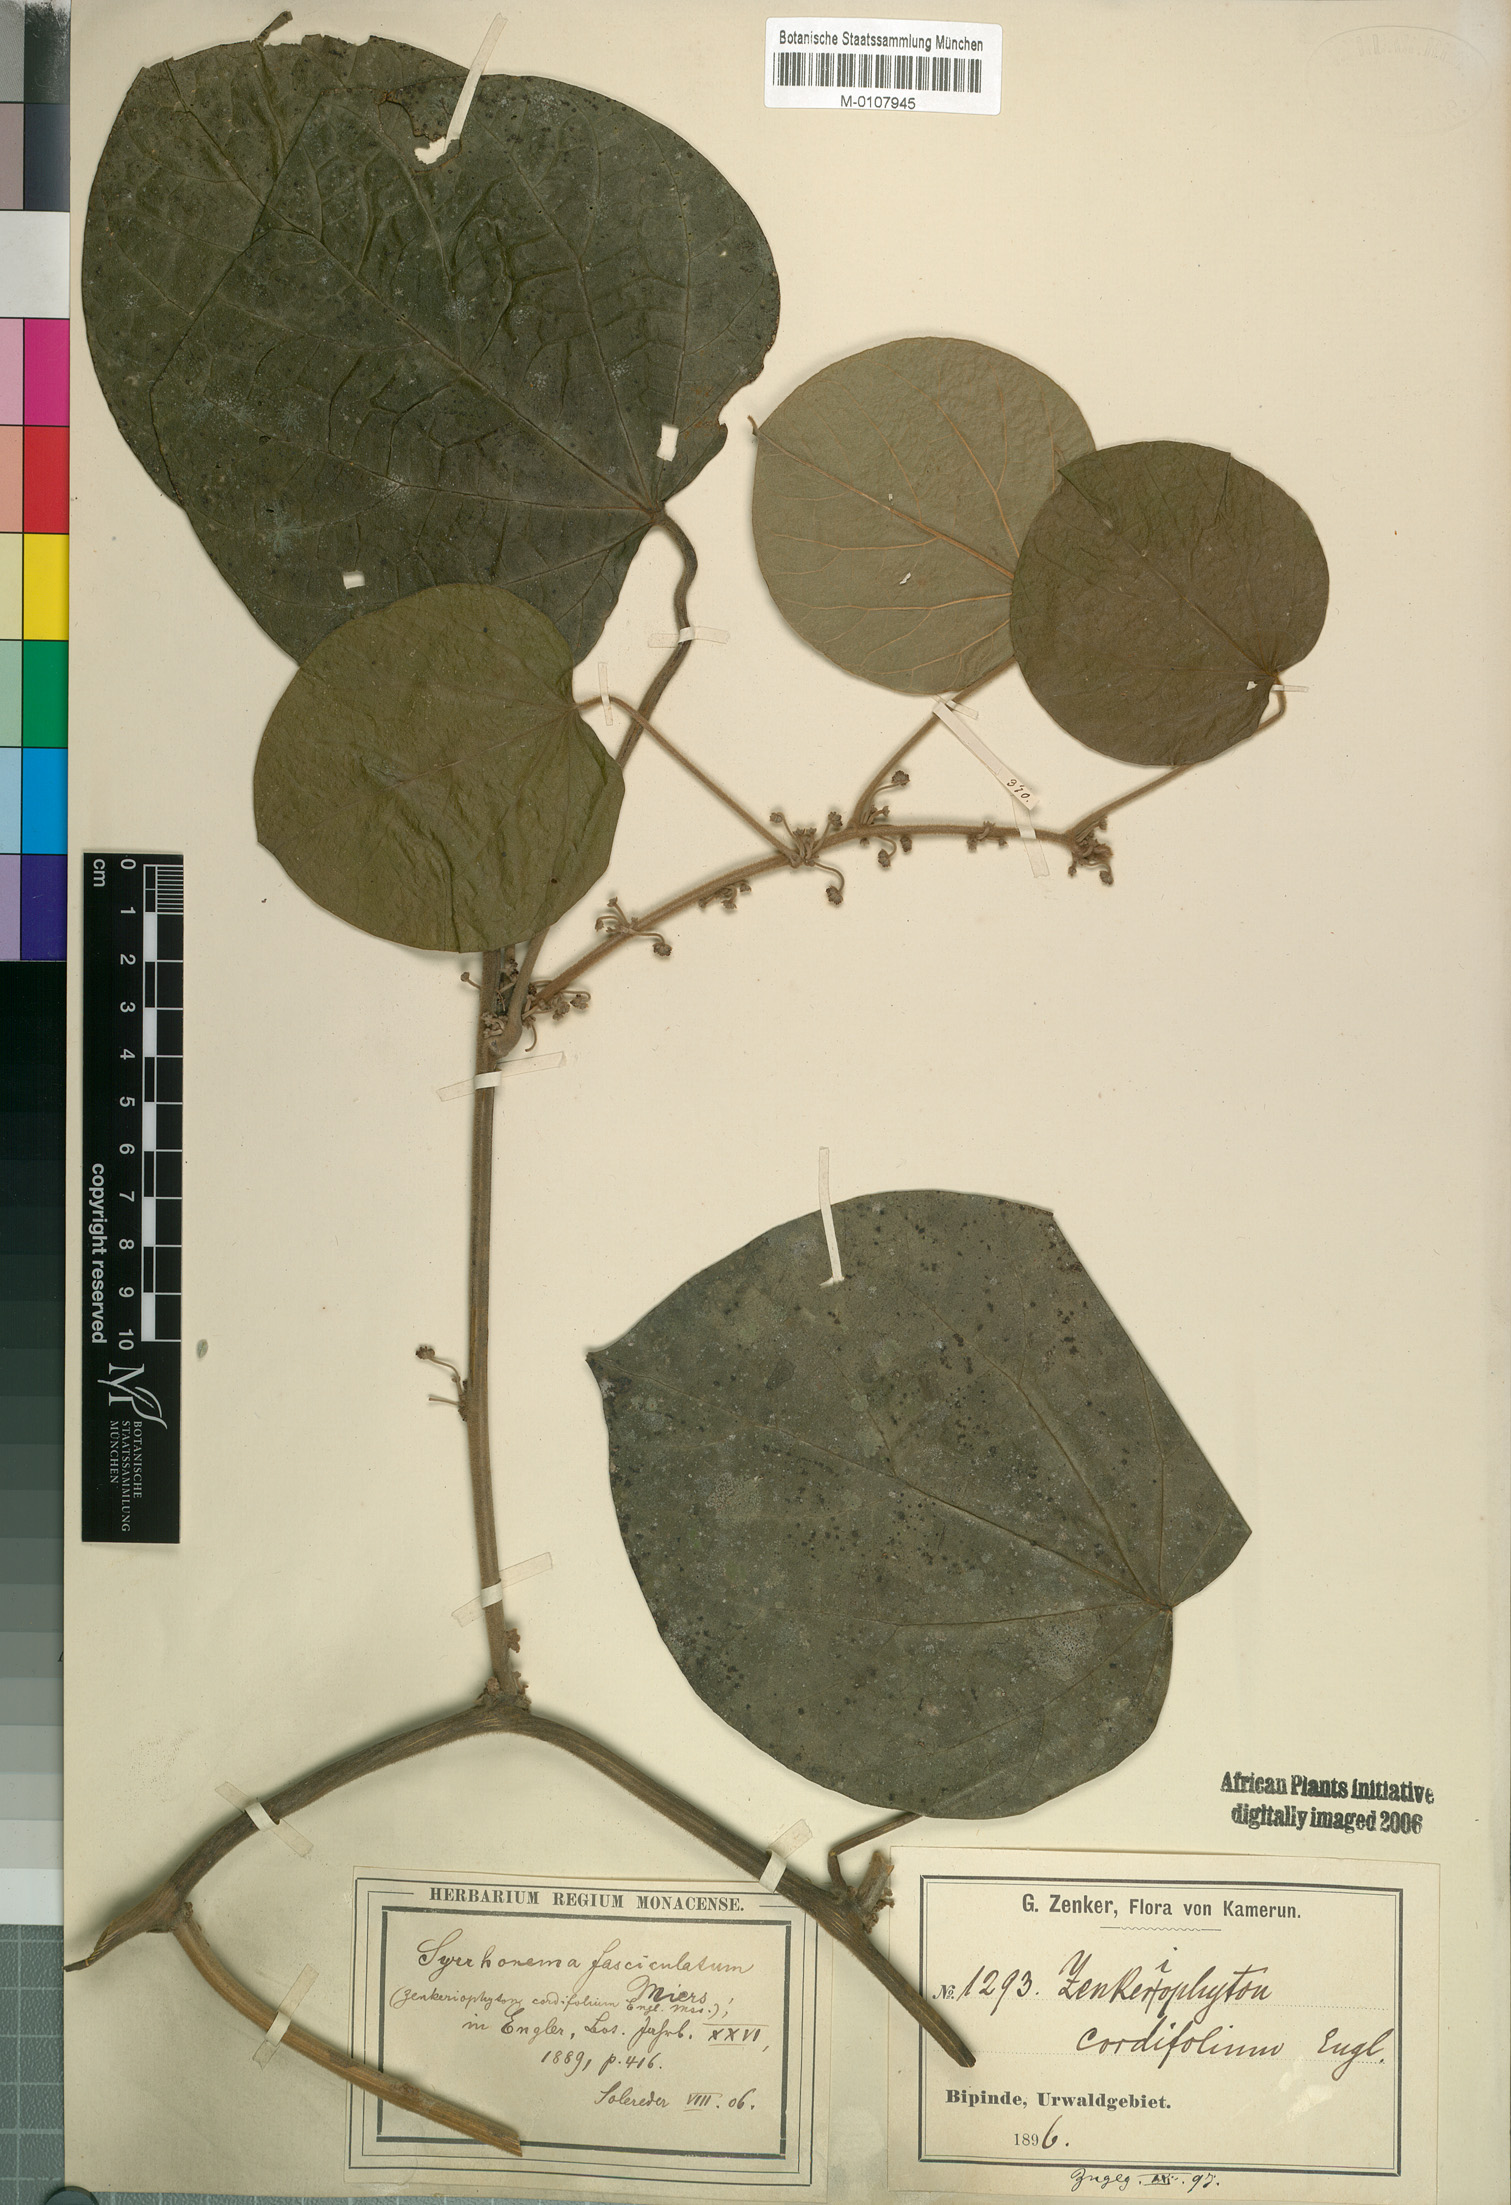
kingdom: Plantae
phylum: Tracheophyta
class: Magnoliopsida
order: Ranunculales
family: Menispermaceae
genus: Syrrheonema
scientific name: Syrrheonema fasciculatum
